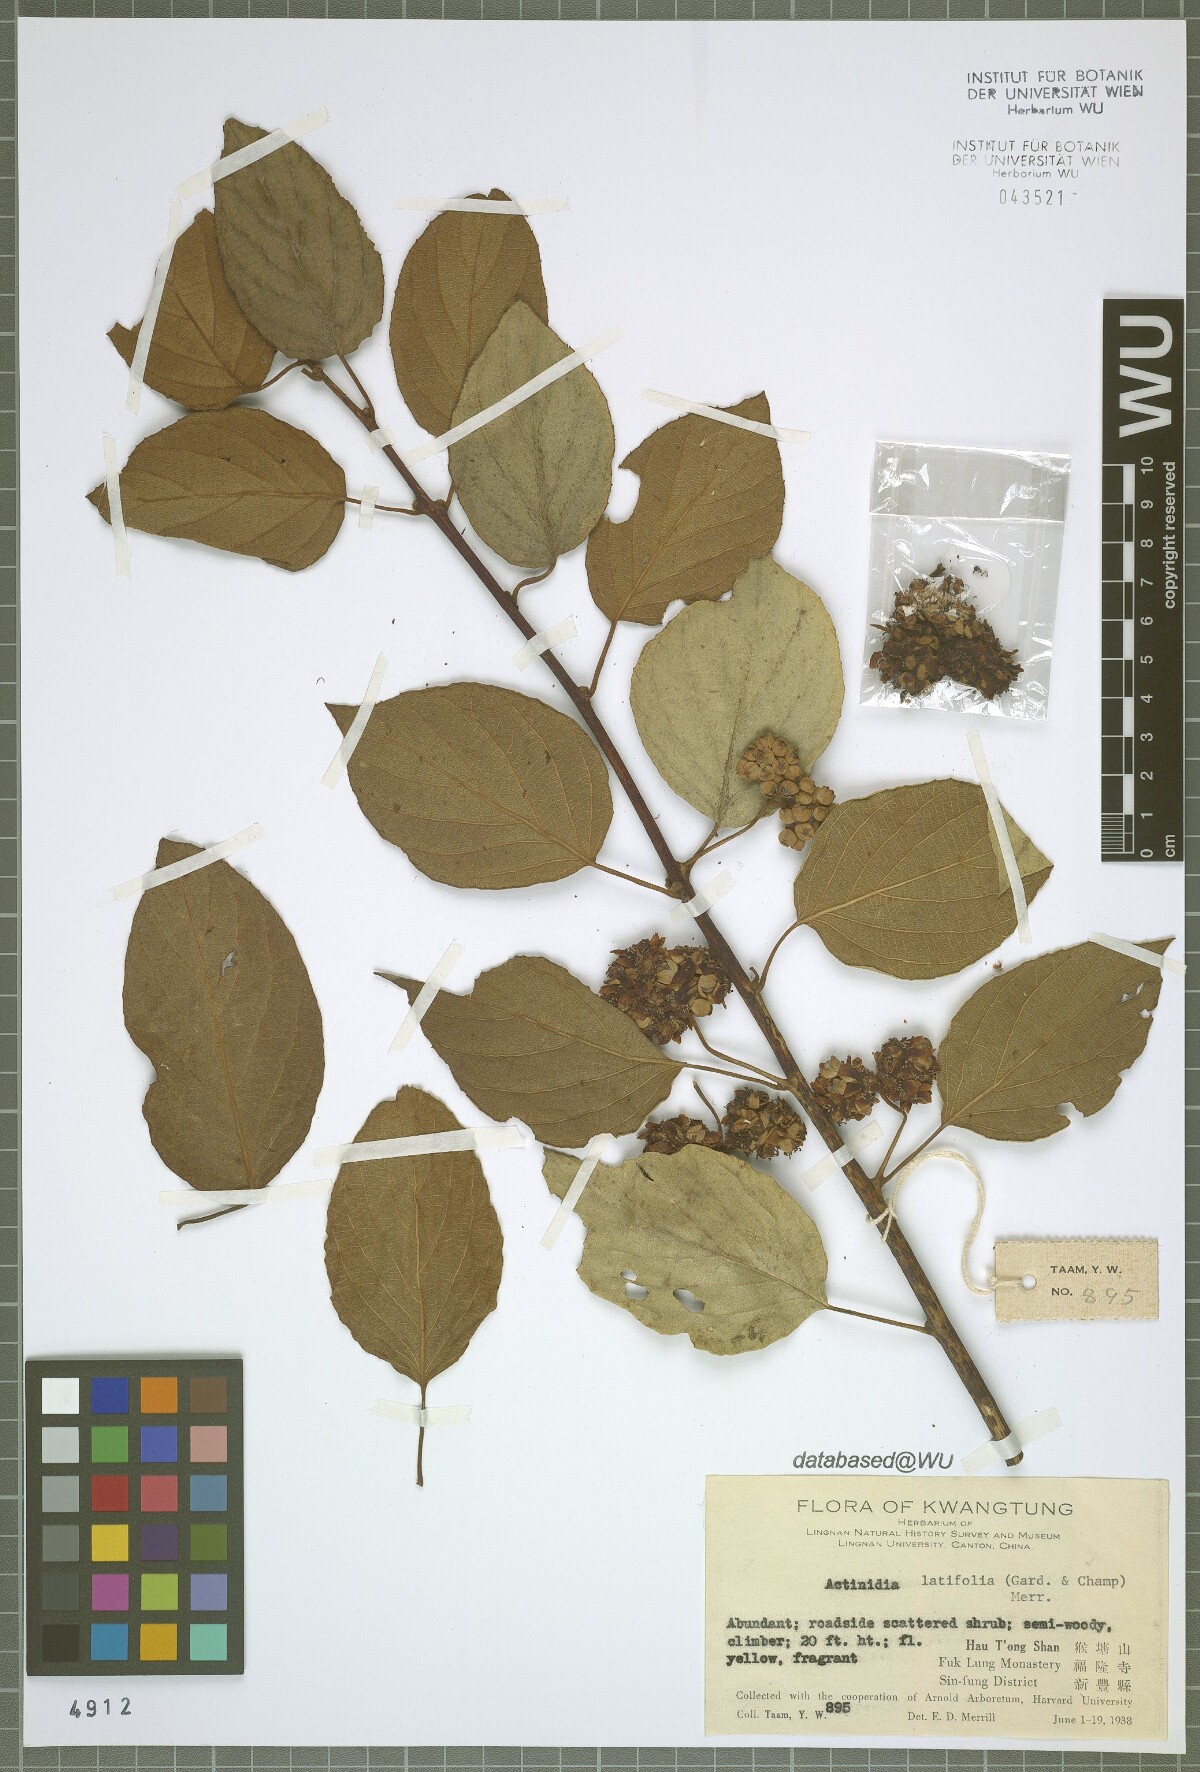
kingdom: Plantae
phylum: Tracheophyta
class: Magnoliopsida
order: Ericales
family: Actinidiaceae
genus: Actinidia
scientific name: Actinidia latifolia
